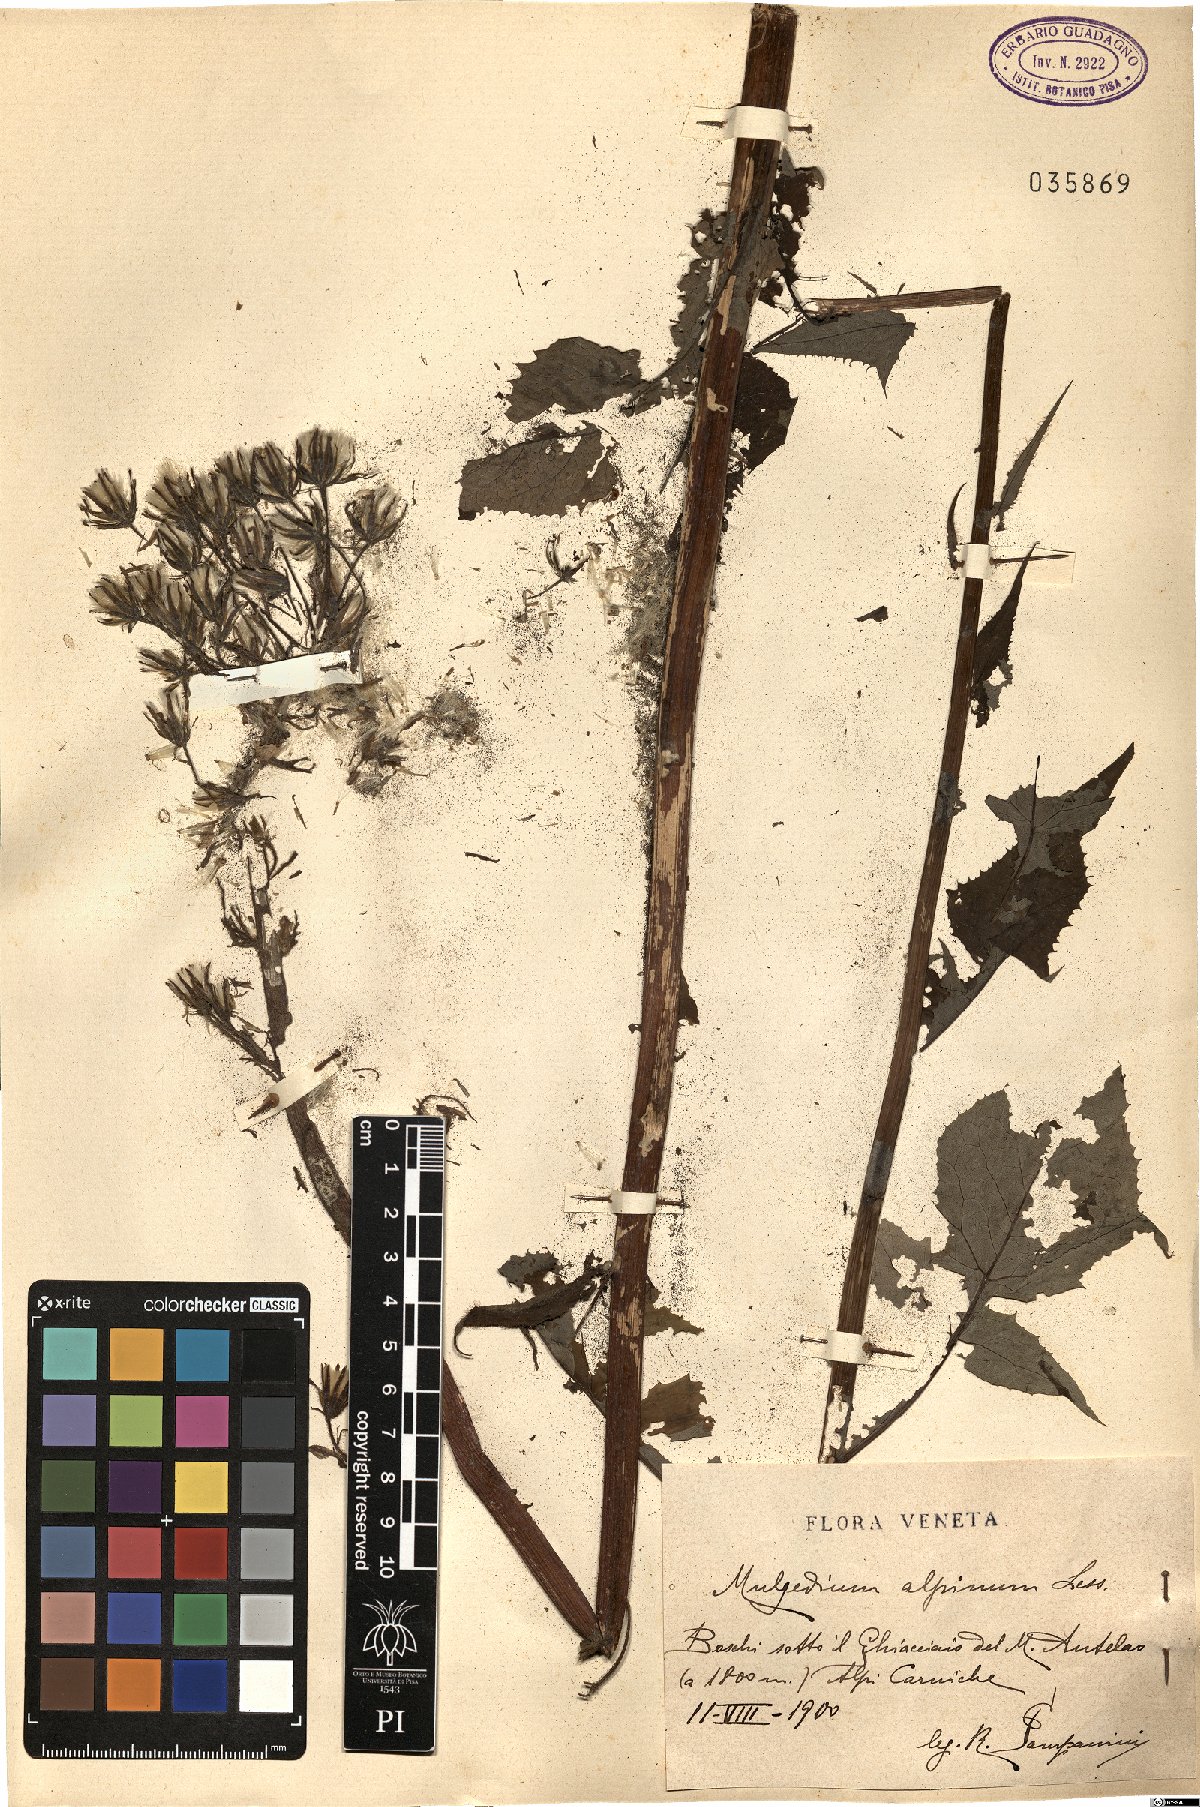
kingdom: Plantae
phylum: Tracheophyta
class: Magnoliopsida
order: Asterales
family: Asteraceae
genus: Cicerbita
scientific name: Cicerbita alpina
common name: Alpine blue-sow-thistle
